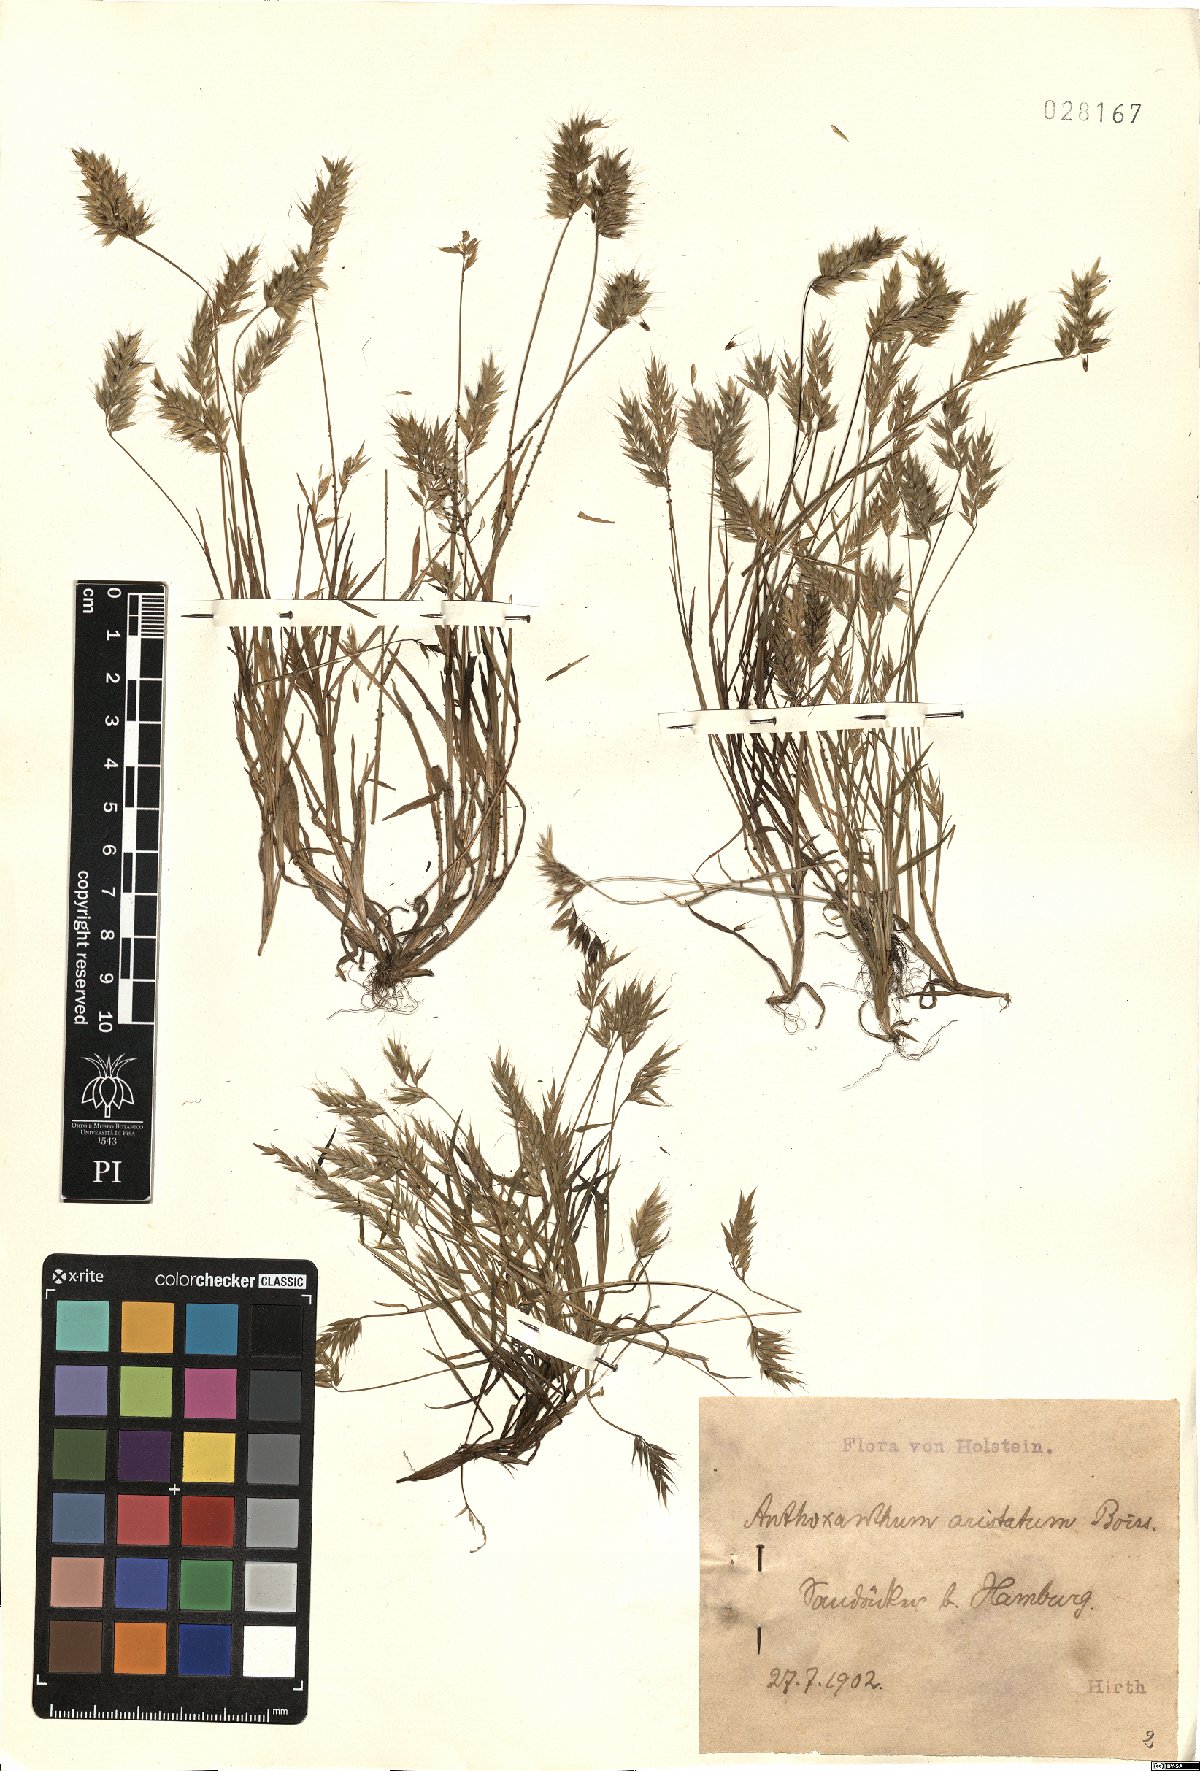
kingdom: Plantae
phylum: Tracheophyta
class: Liliopsida
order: Poales
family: Poaceae
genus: Anthoxanthum
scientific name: Anthoxanthum aristatum
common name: Annual vernal-grass
